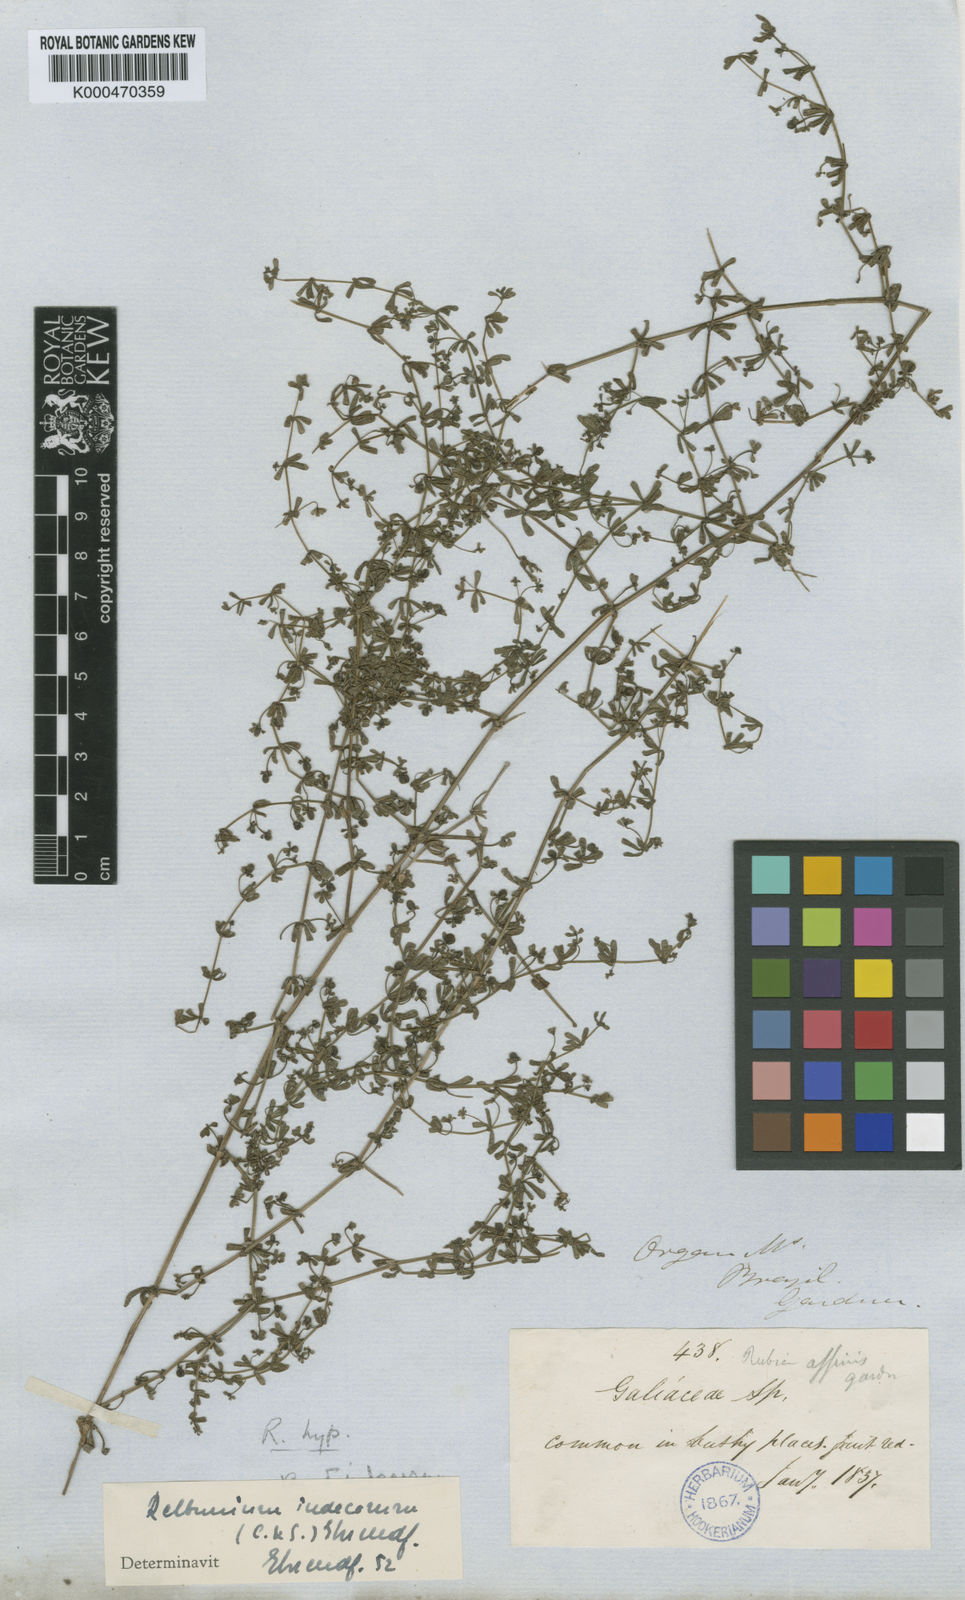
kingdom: Plantae
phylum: Tracheophyta
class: Magnoliopsida
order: Gentianales
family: Rubiaceae
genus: Galium
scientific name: Galium hypocarpium
